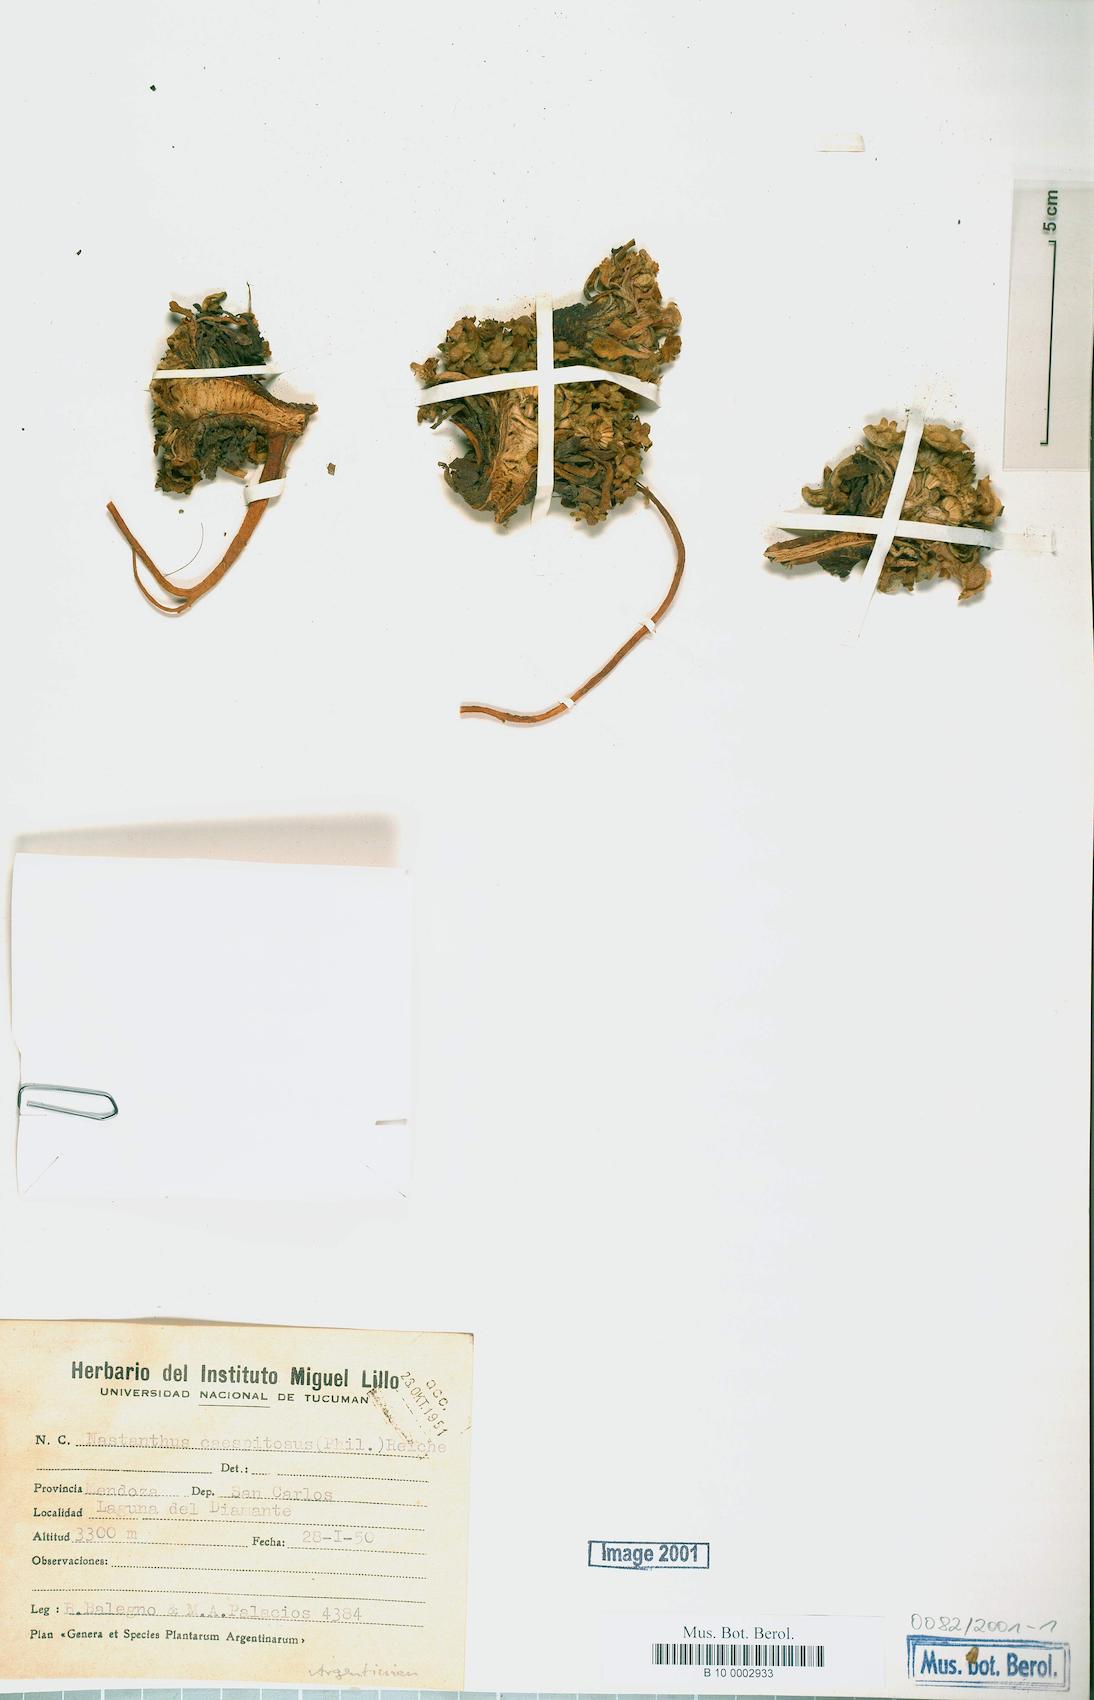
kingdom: Plantae
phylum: Tracheophyta
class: Magnoliopsida
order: Asterales
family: Calyceraceae
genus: Gamocarpha
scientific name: Gamocarpha caespitosa
